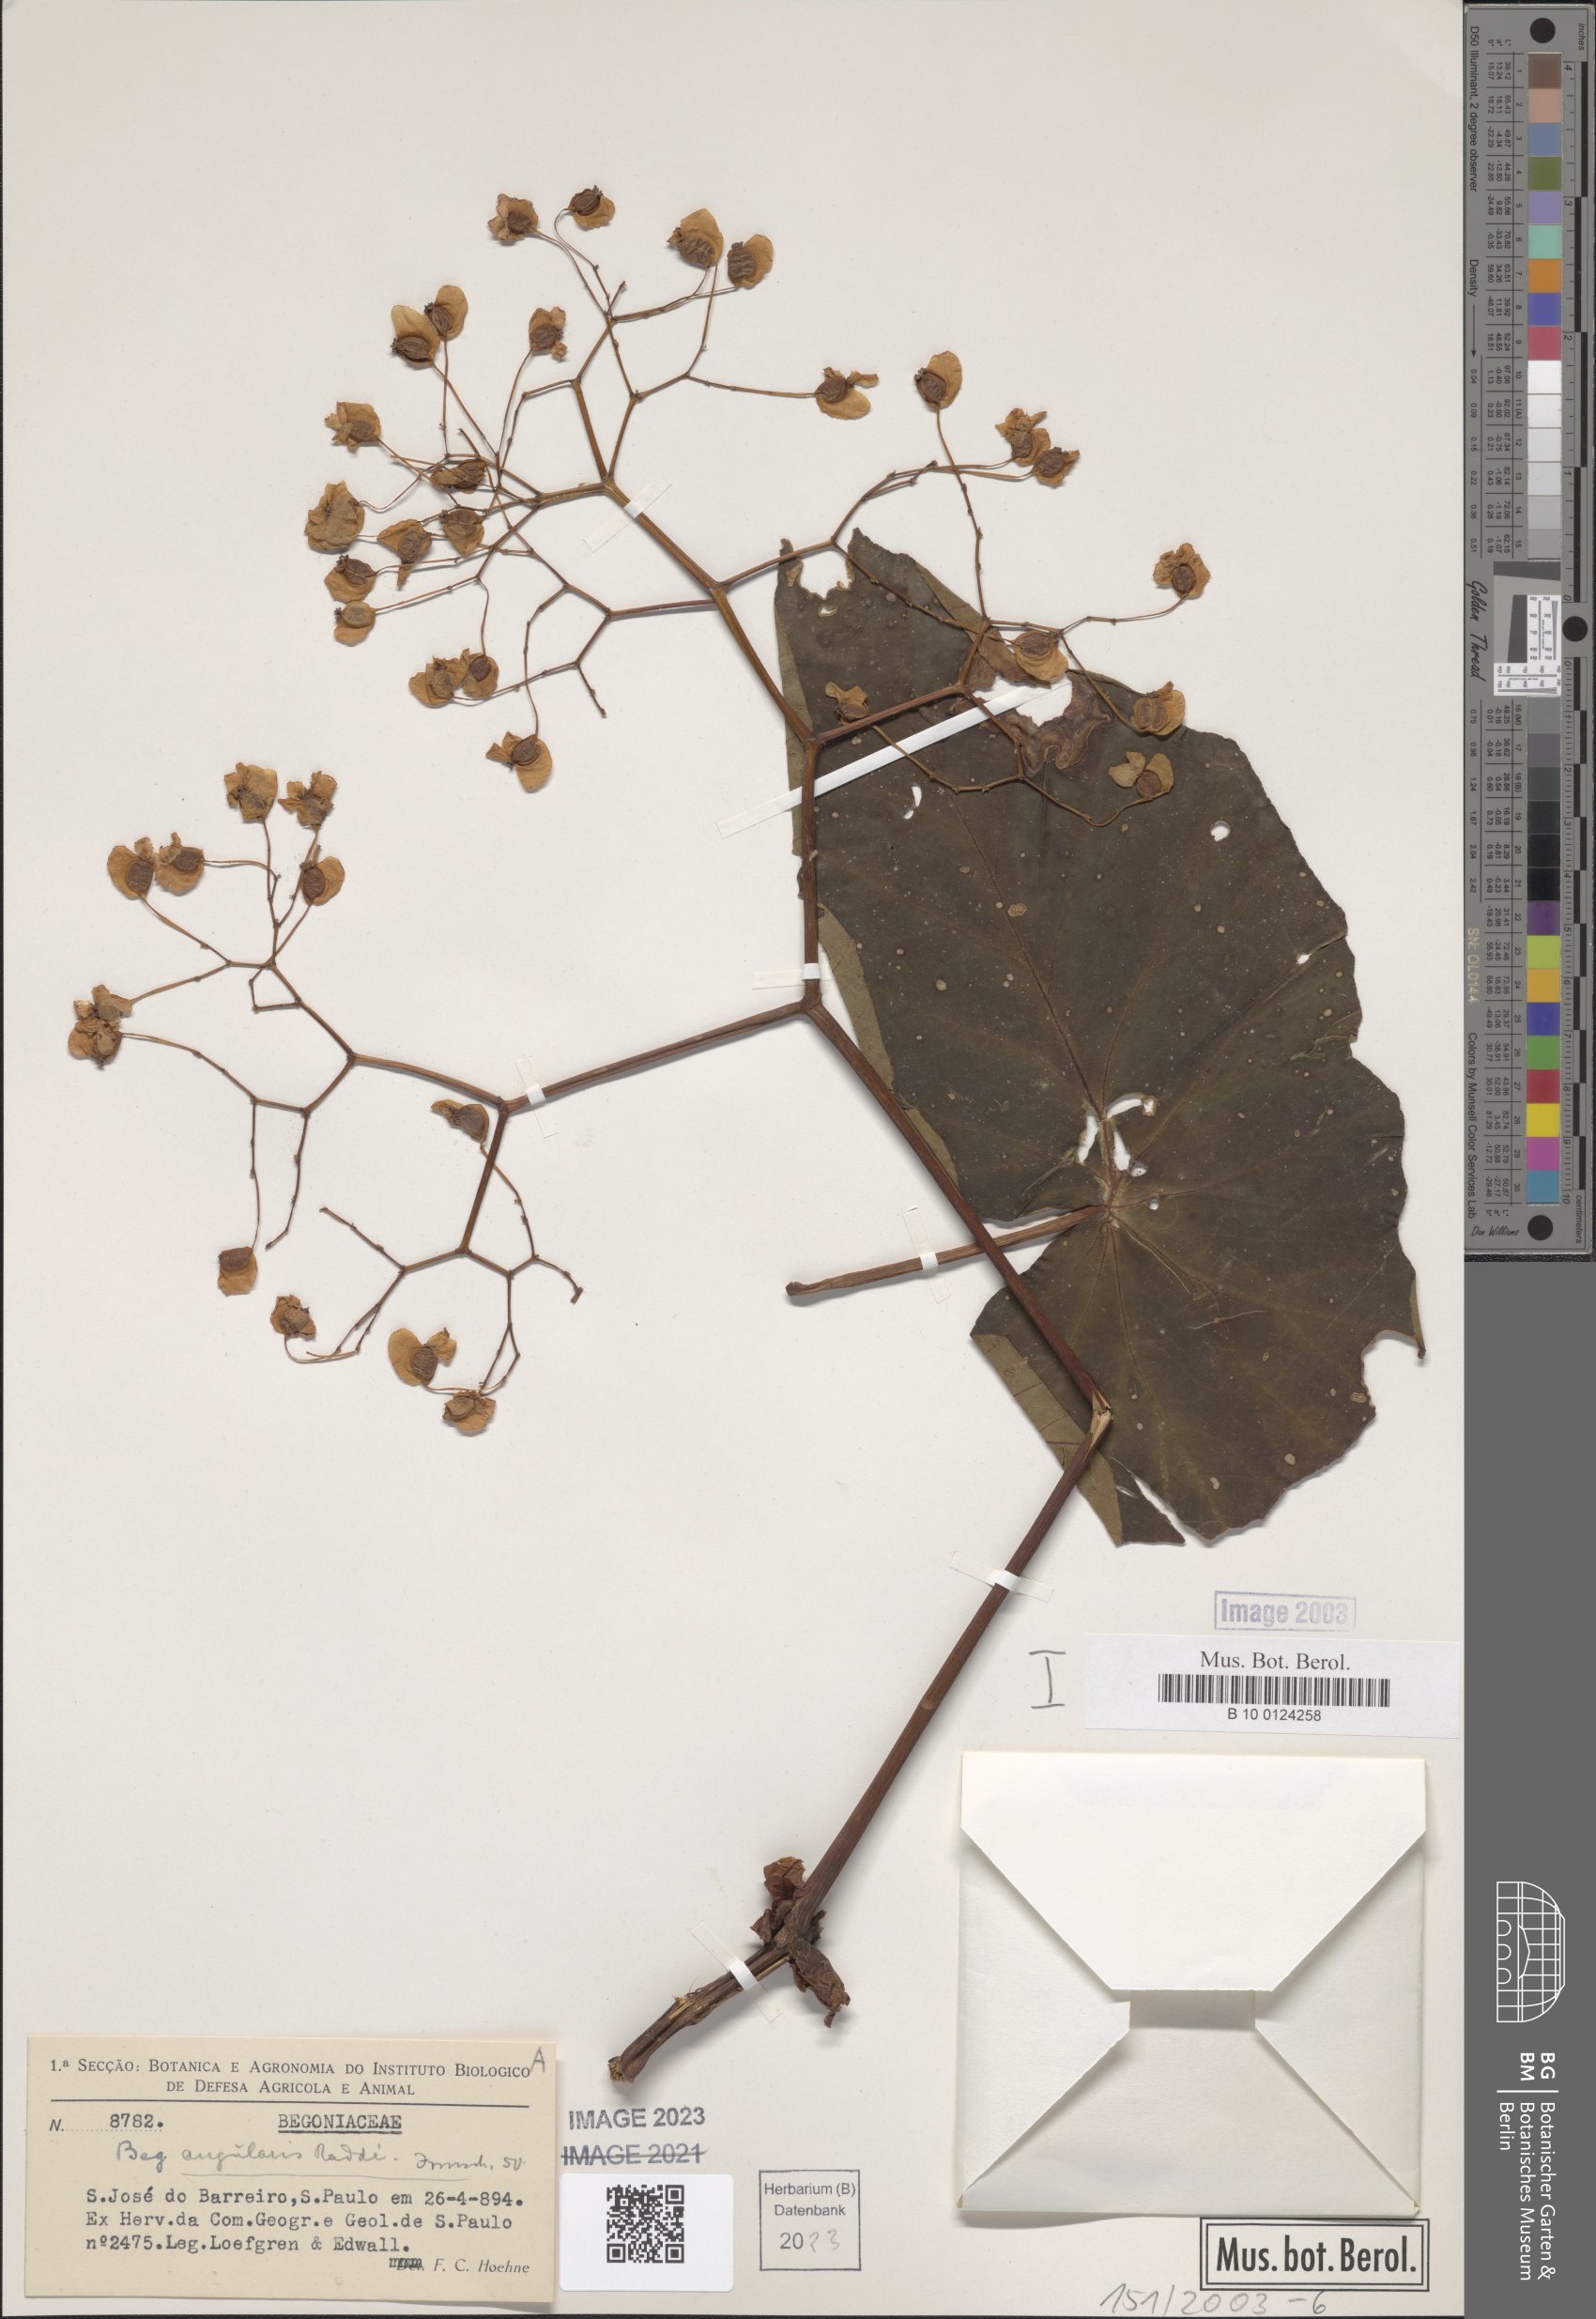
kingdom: Plantae
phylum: Tracheophyta
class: Magnoliopsida
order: Cucurbitales
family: Begoniaceae
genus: Begonia
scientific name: Begonia angularis
